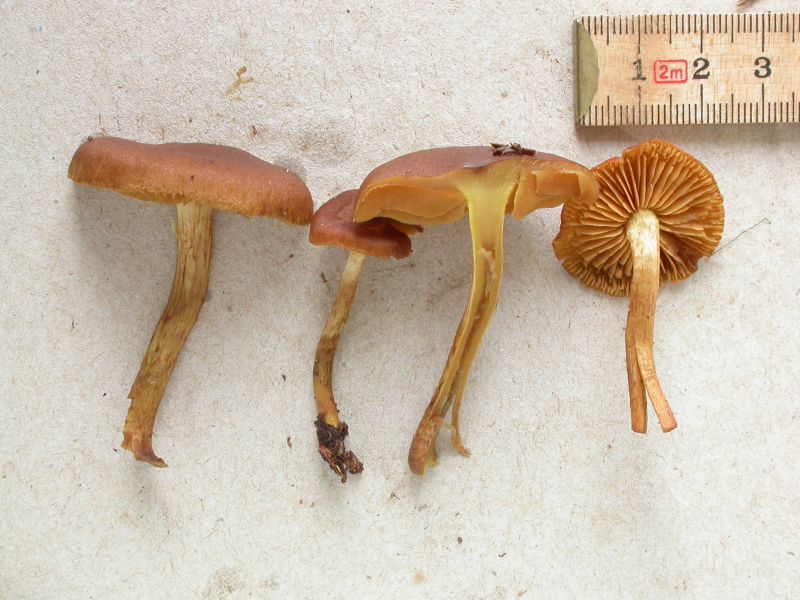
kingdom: Fungi
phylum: Basidiomycota
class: Agaricomycetes
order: Agaricales
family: Cortinariaceae
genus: Cortinarius
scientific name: Cortinarius cinnamomeus
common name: kanel-slørhat
